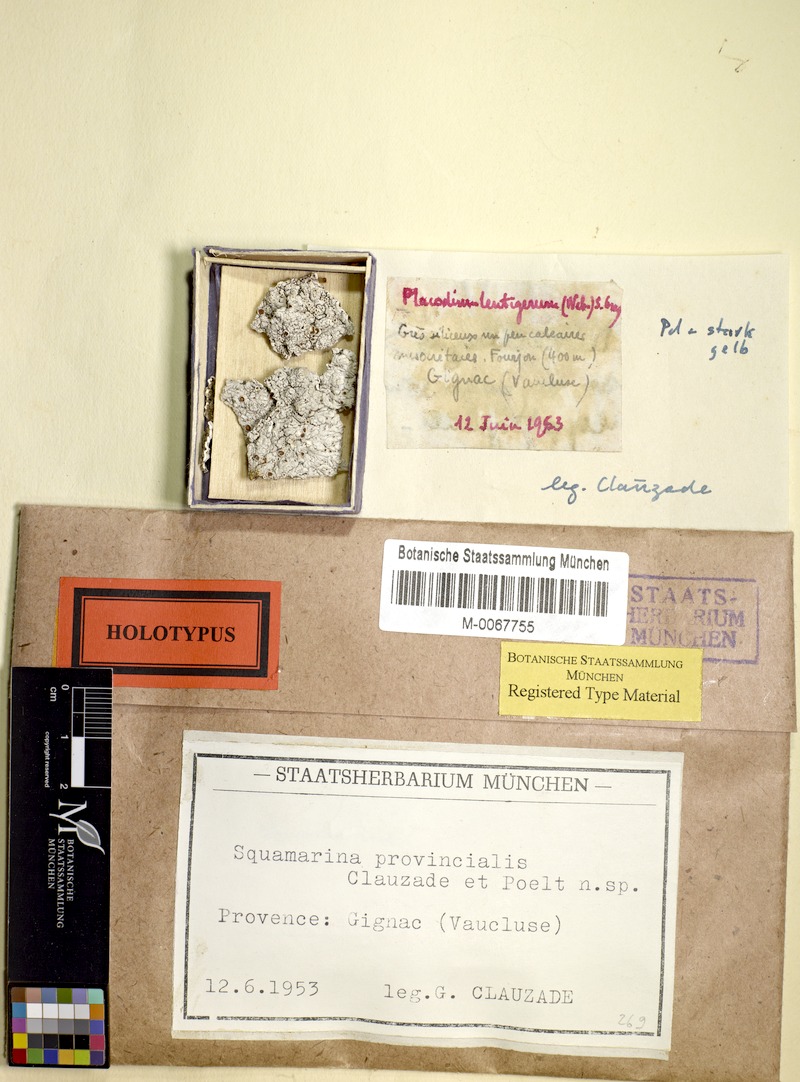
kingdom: Fungi
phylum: Ascomycota
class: Lecanoromycetes
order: Lecanorales
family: Lecanoraceae
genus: Protoparmeliopsis
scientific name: Protoparmeliopsis muralis
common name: Stonewall rim lichen
